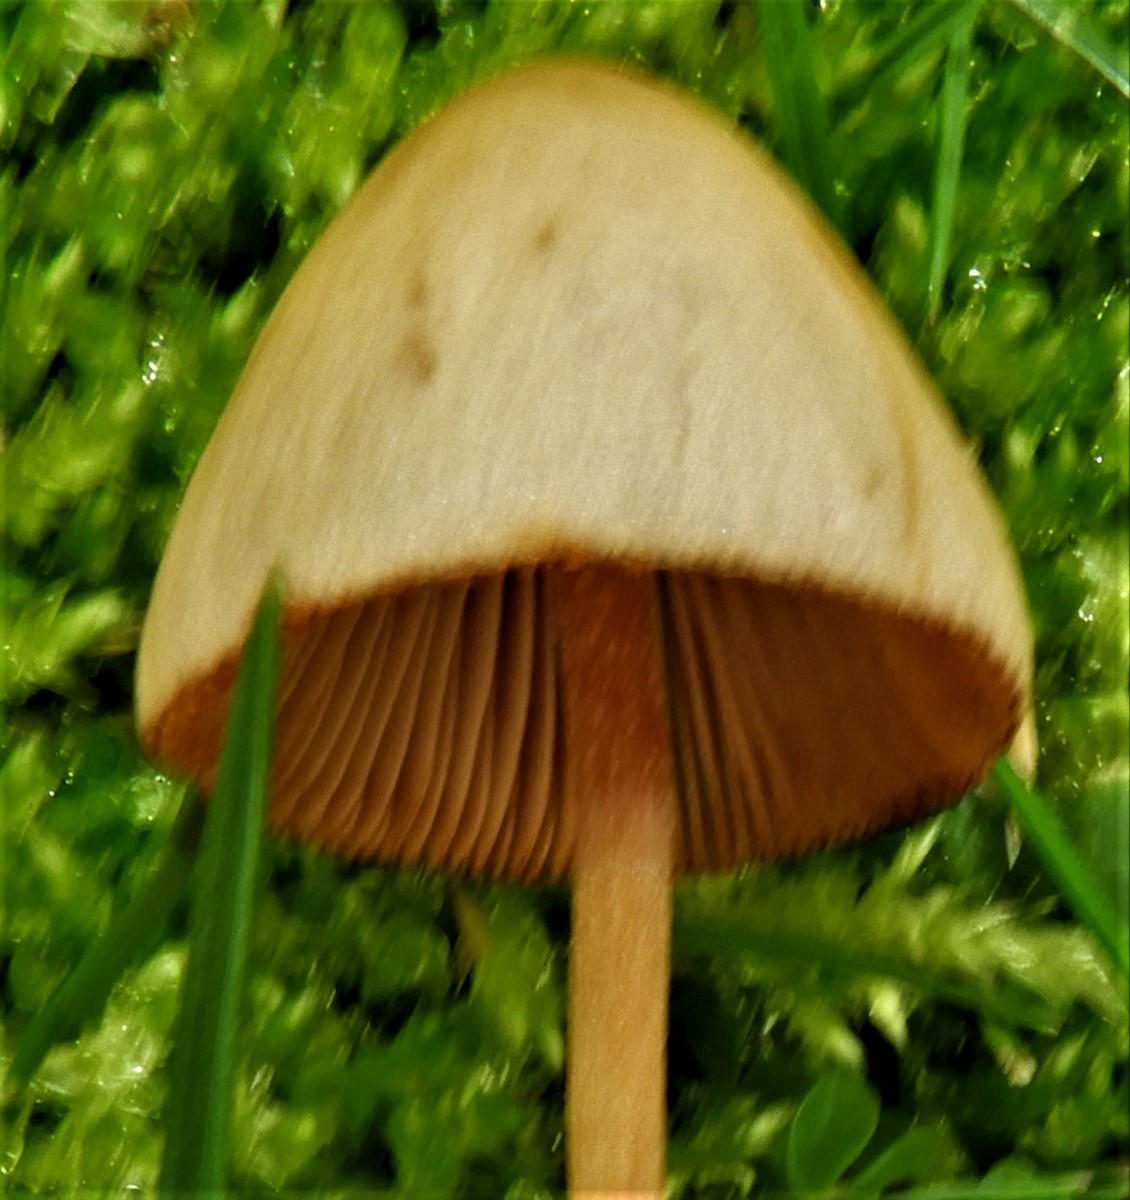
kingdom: Fungi
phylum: Basidiomycota
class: Agaricomycetes
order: Agaricales
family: Bolbitiaceae
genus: Conocybe
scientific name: Conocybe
